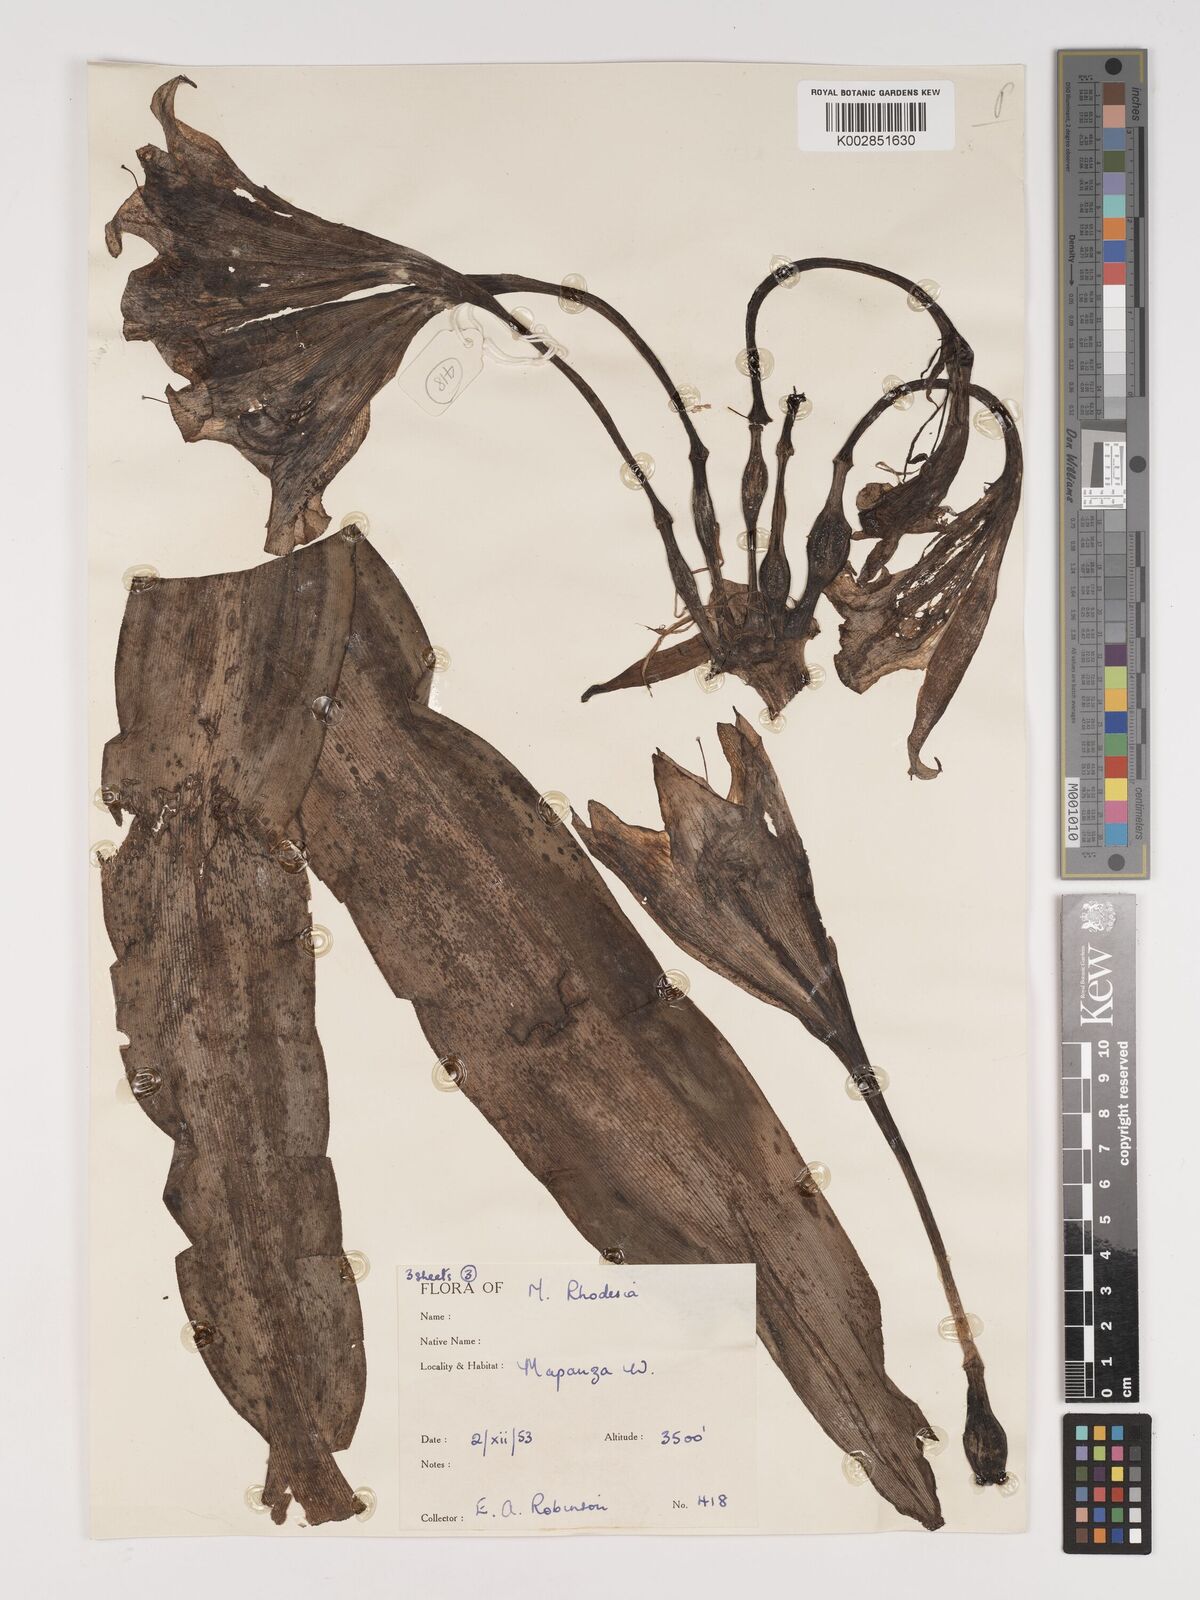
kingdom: Plantae
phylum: Tracheophyta
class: Liliopsida
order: Asparagales
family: Amaryllidaceae
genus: Crinum
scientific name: Crinum macowanii
